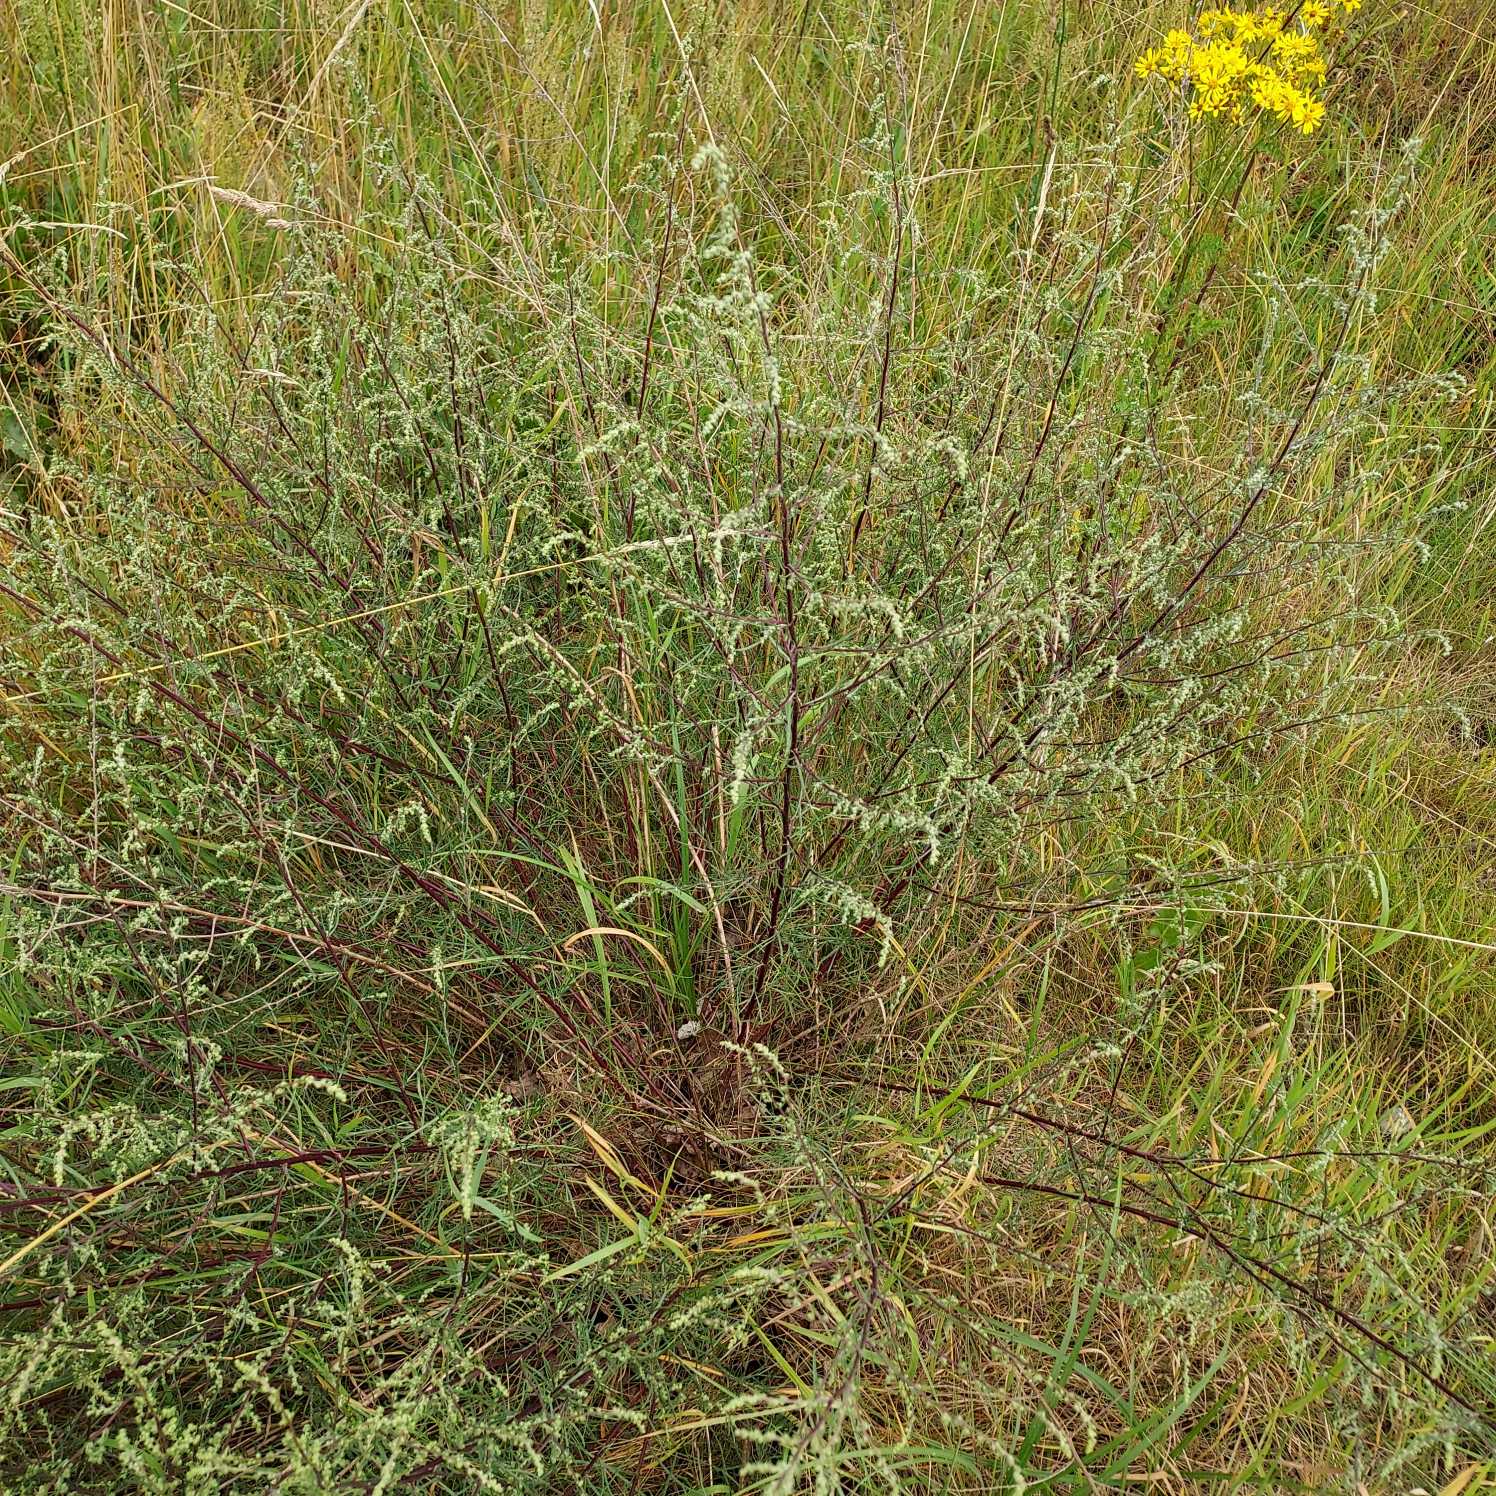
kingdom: Plantae
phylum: Tracheophyta
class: Magnoliopsida
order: Asterales
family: Asteraceae
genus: Artemisia
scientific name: Artemisia campestris
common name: Mark-bynke
